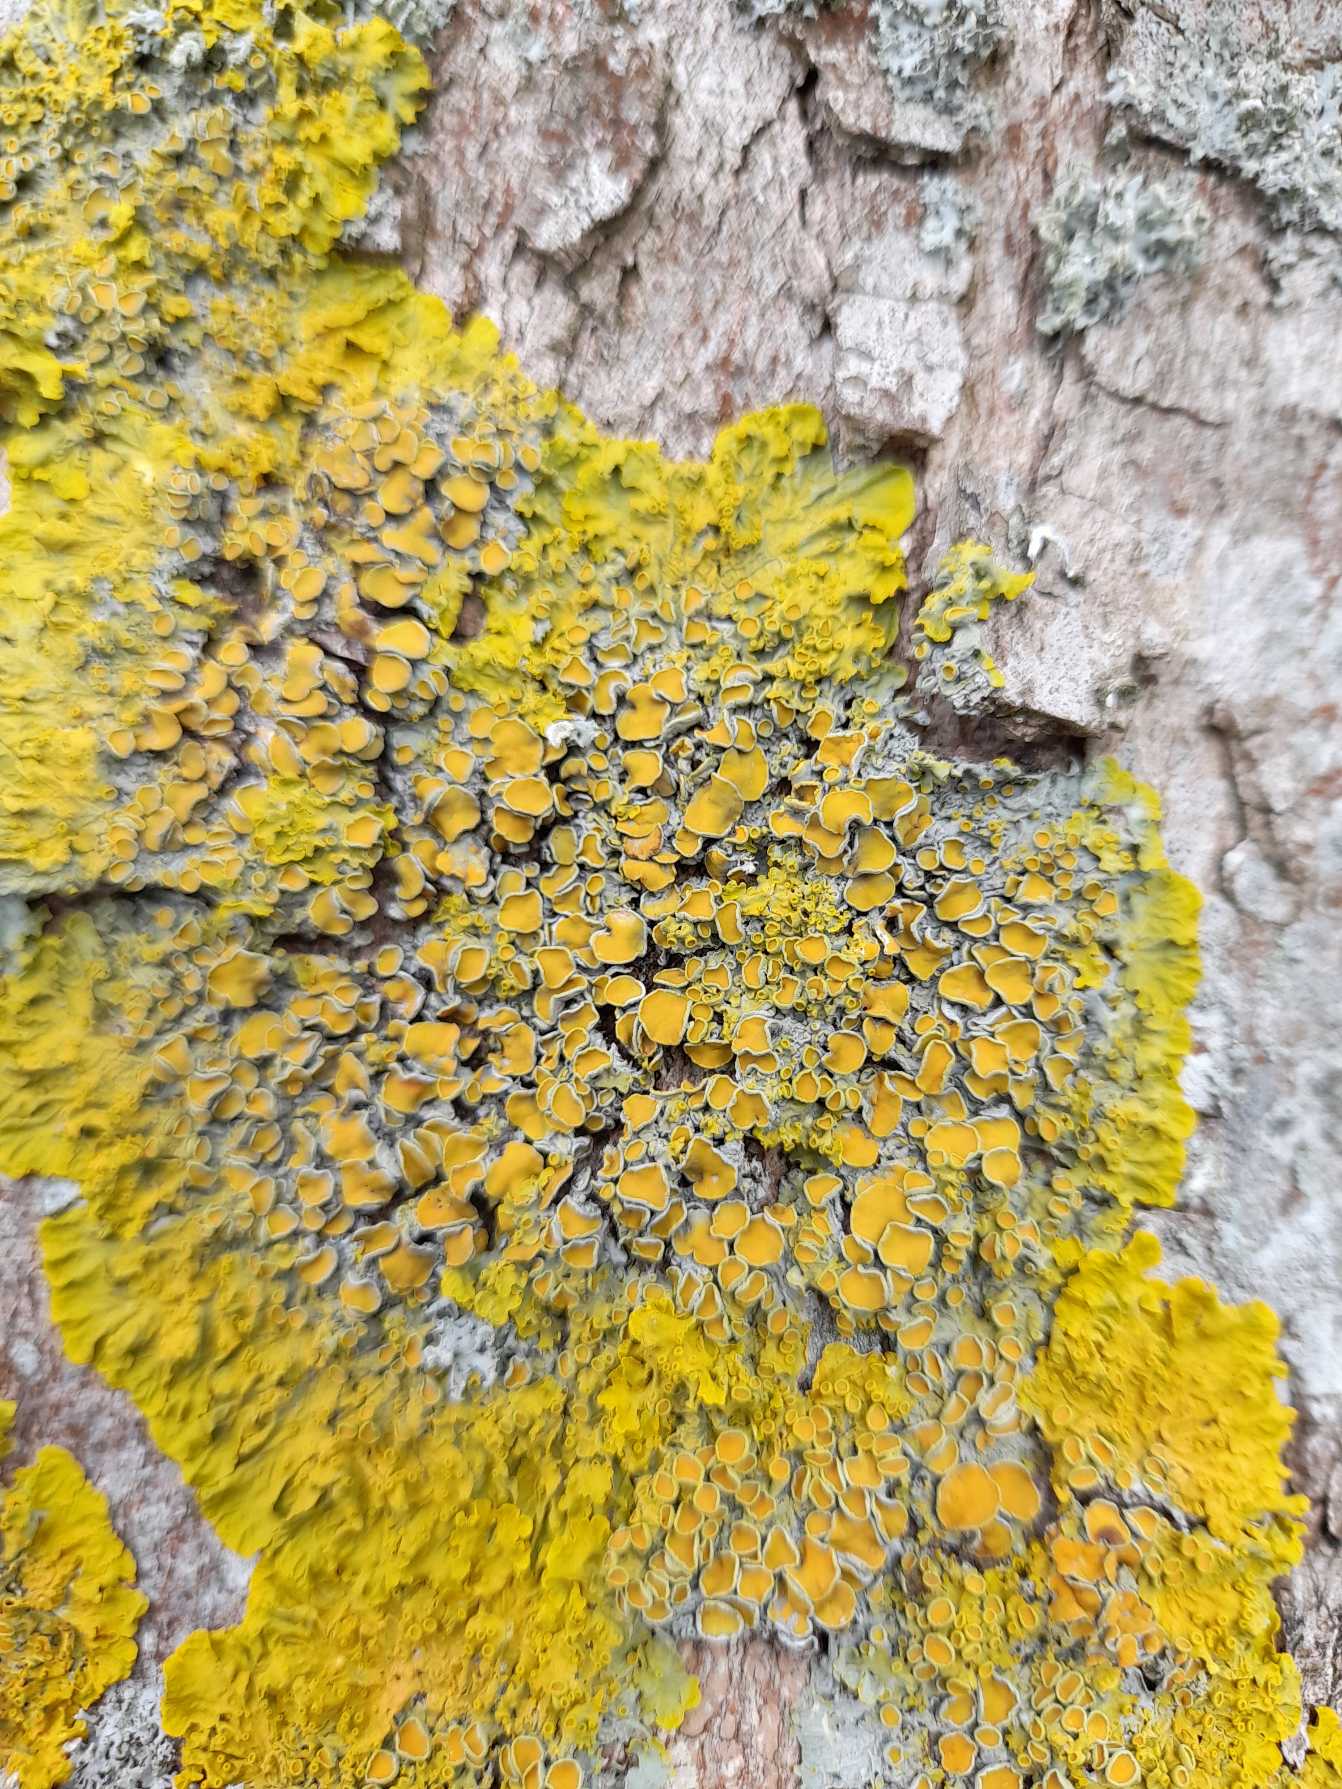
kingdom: Fungi
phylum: Ascomycota
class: Lecanoromycetes
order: Teloschistales
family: Teloschistaceae
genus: Xanthoria
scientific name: Xanthoria parietina
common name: Almindelig væggelav
